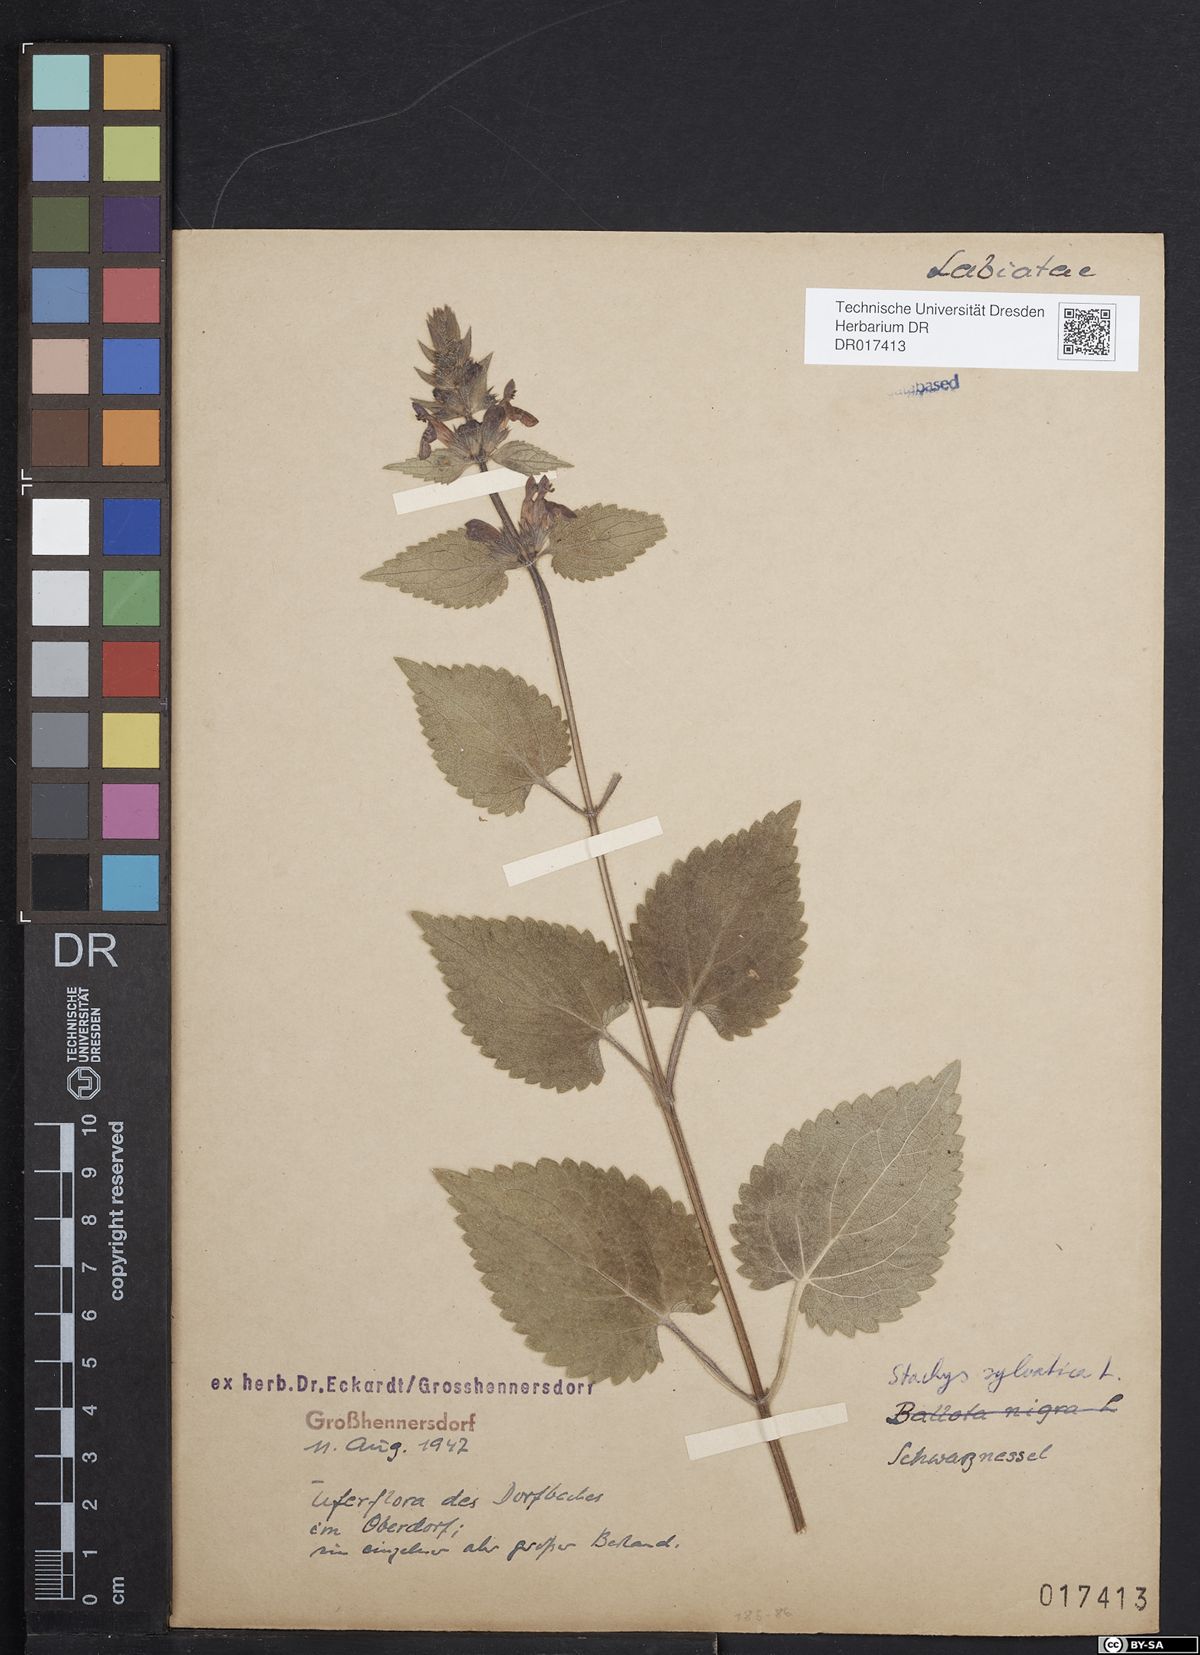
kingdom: Plantae
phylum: Tracheophyta
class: Magnoliopsida
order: Lamiales
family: Lamiaceae
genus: Stachys
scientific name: Stachys sylvatica
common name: Hedge woundwort
